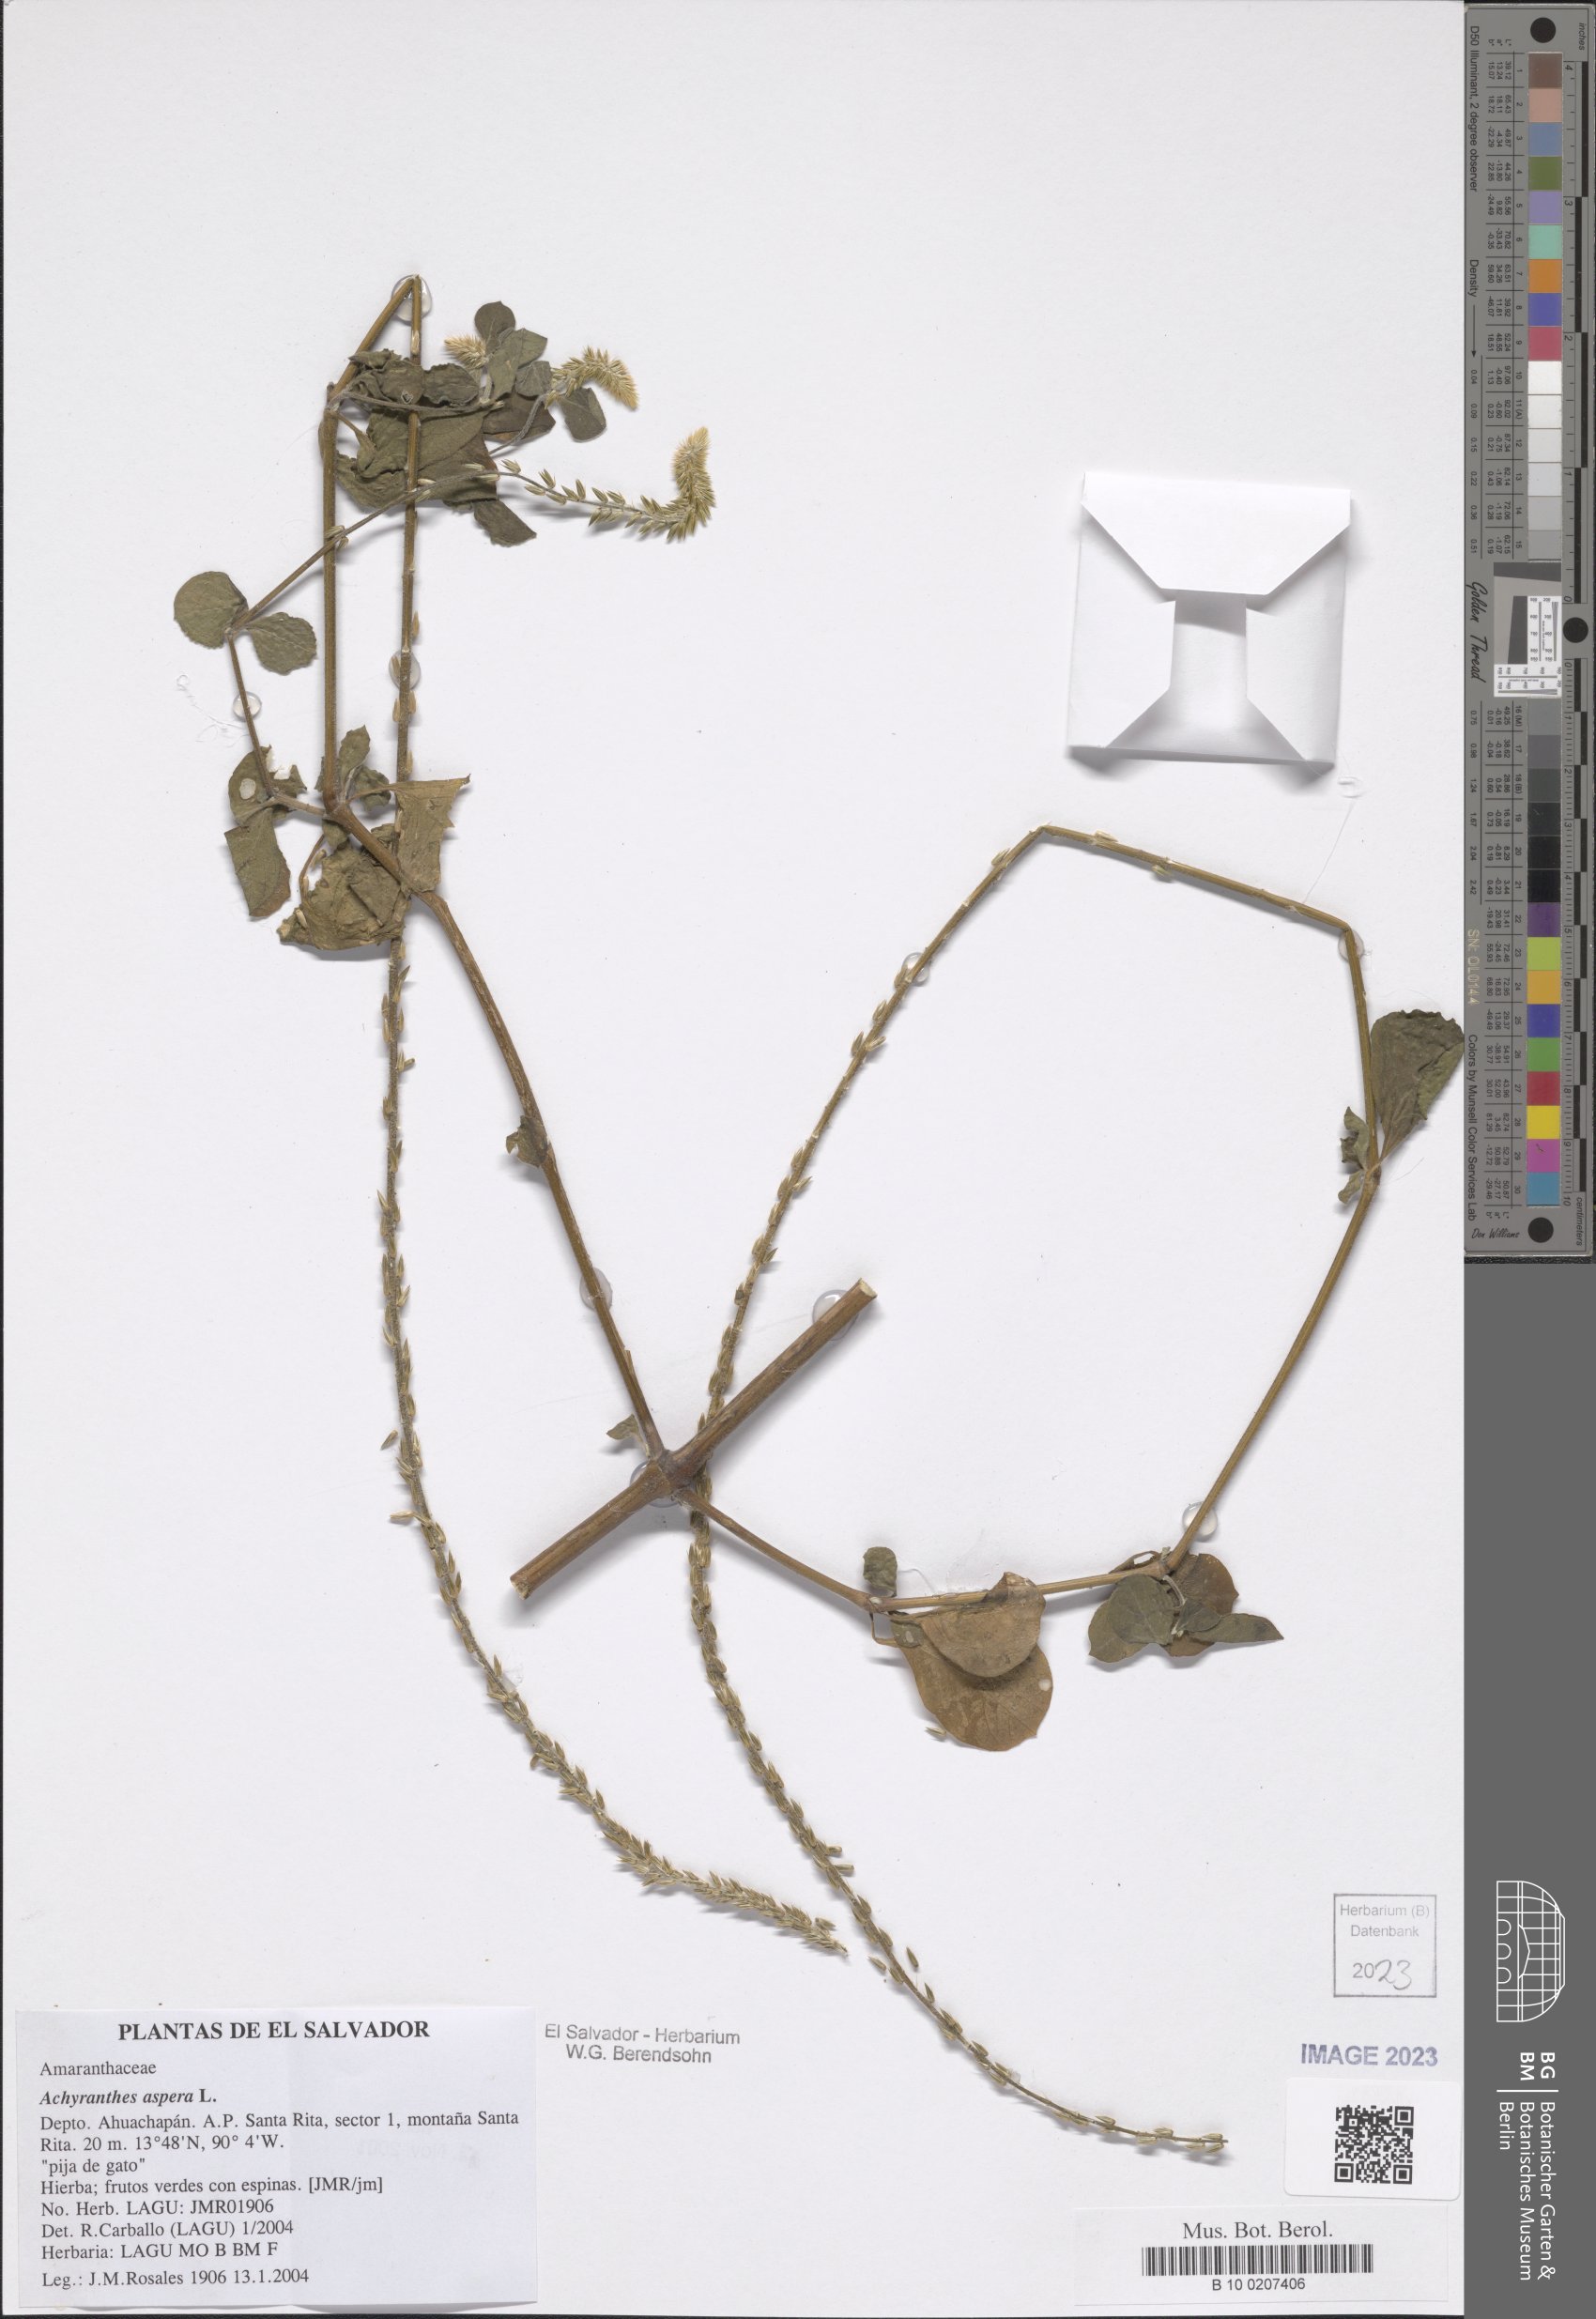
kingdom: Plantae
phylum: Tracheophyta
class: Magnoliopsida
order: Caryophyllales
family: Amaranthaceae
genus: Achyranthes
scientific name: Achyranthes aspera
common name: Devil's horsewhip
